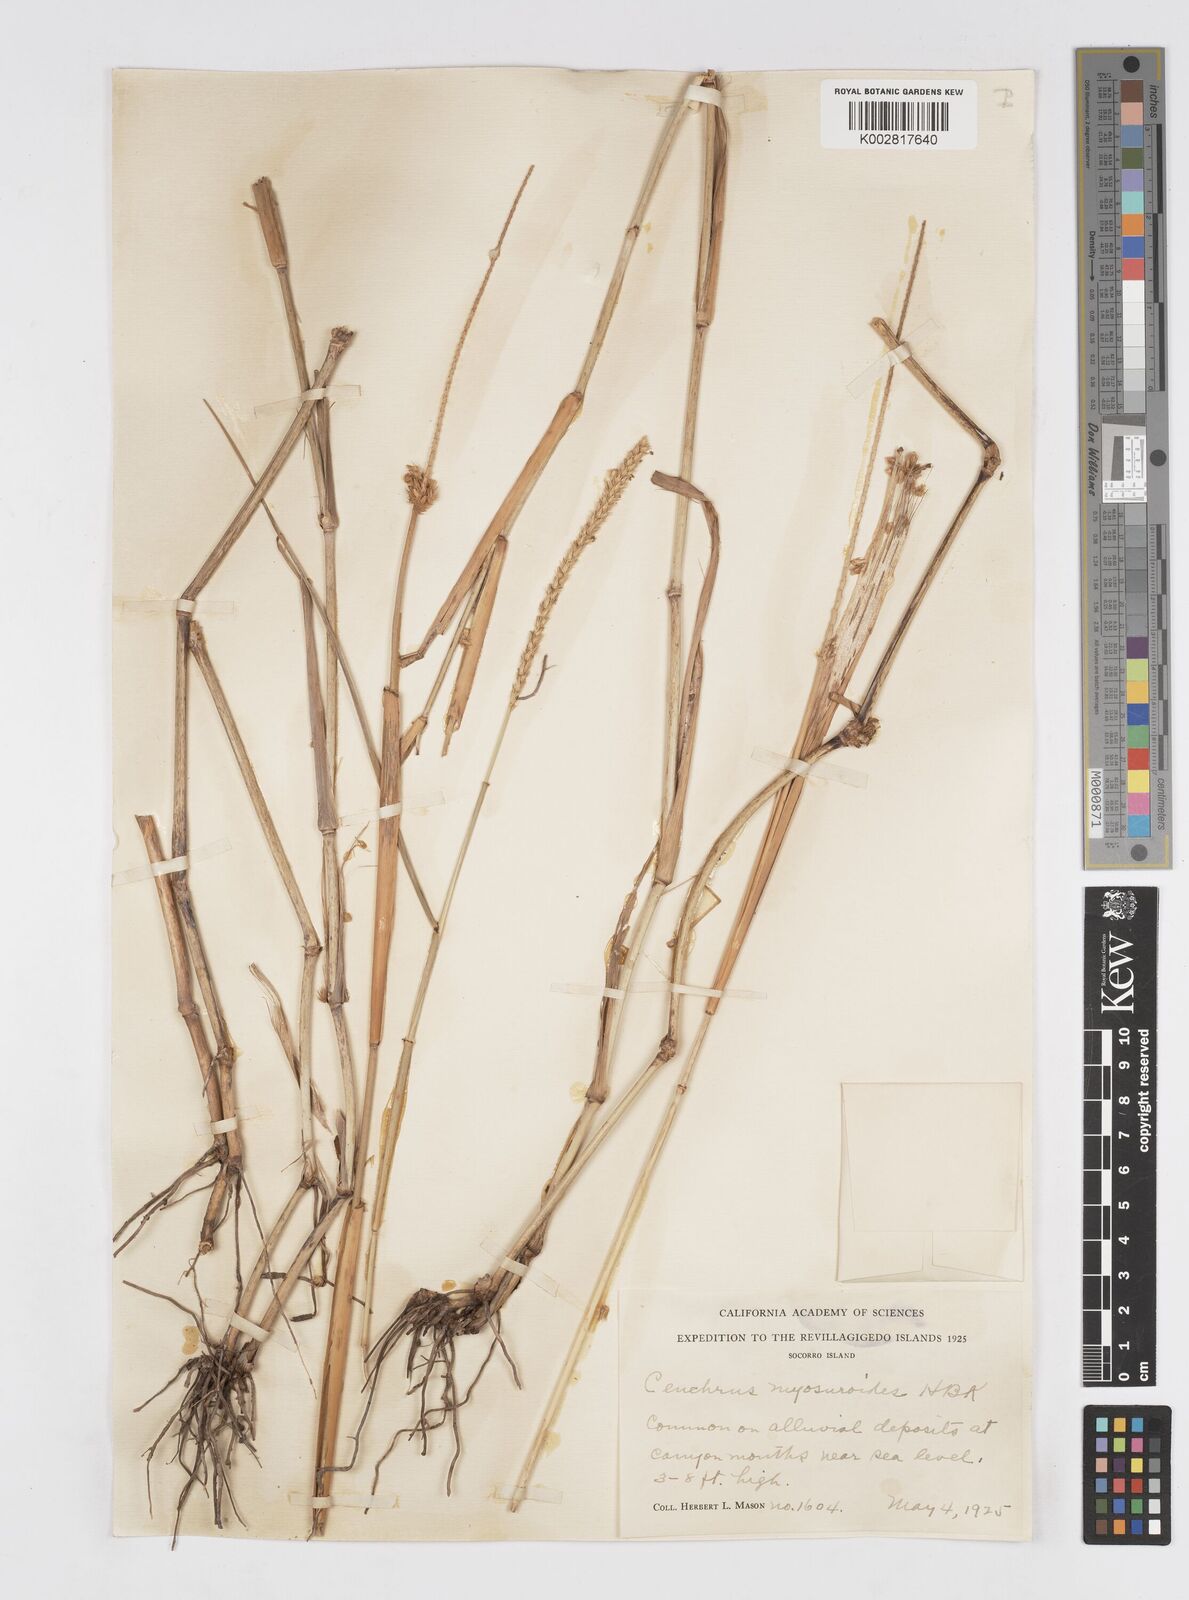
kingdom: Plantae
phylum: Tracheophyta
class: Liliopsida
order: Poales
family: Poaceae
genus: Cenchrus
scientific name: Cenchrus myosuroides
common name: Big sandbur
